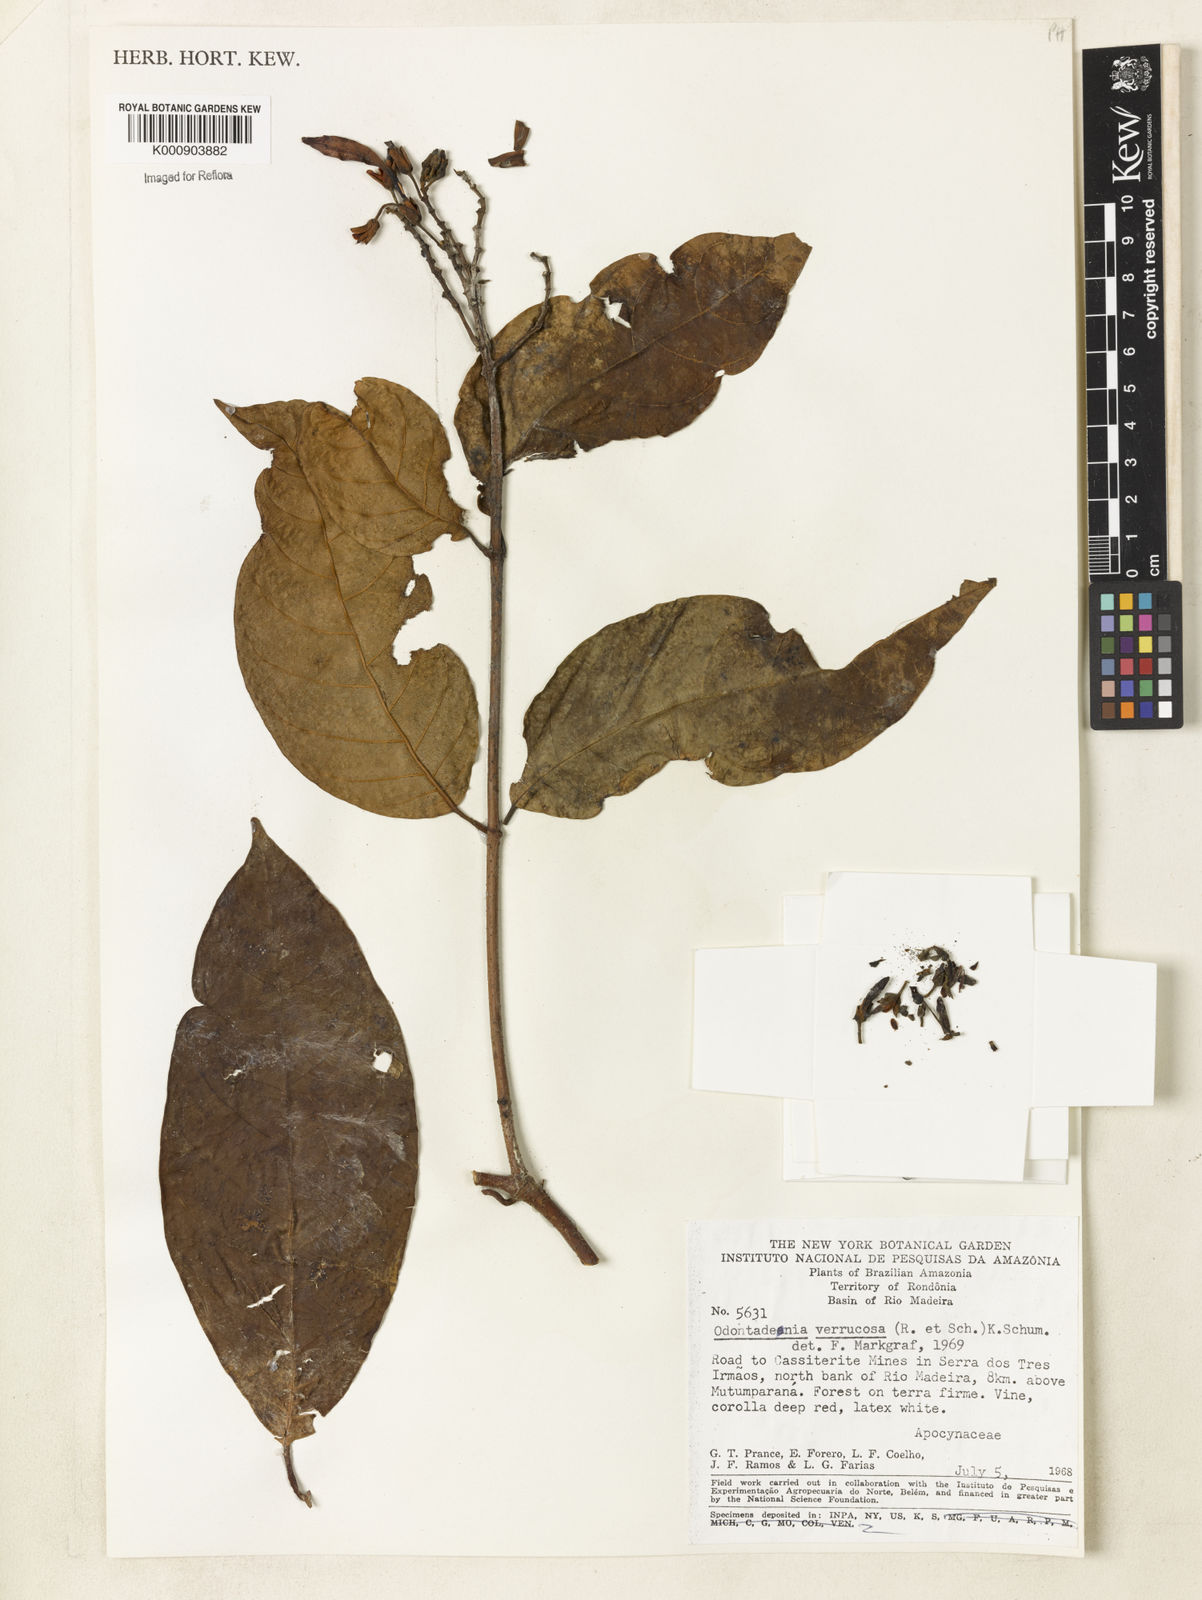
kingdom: Plantae
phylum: Tracheophyta
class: Magnoliopsida
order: Gentianales
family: Apocynaceae
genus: Odontadenia
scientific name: Odontadenia verrucosa
